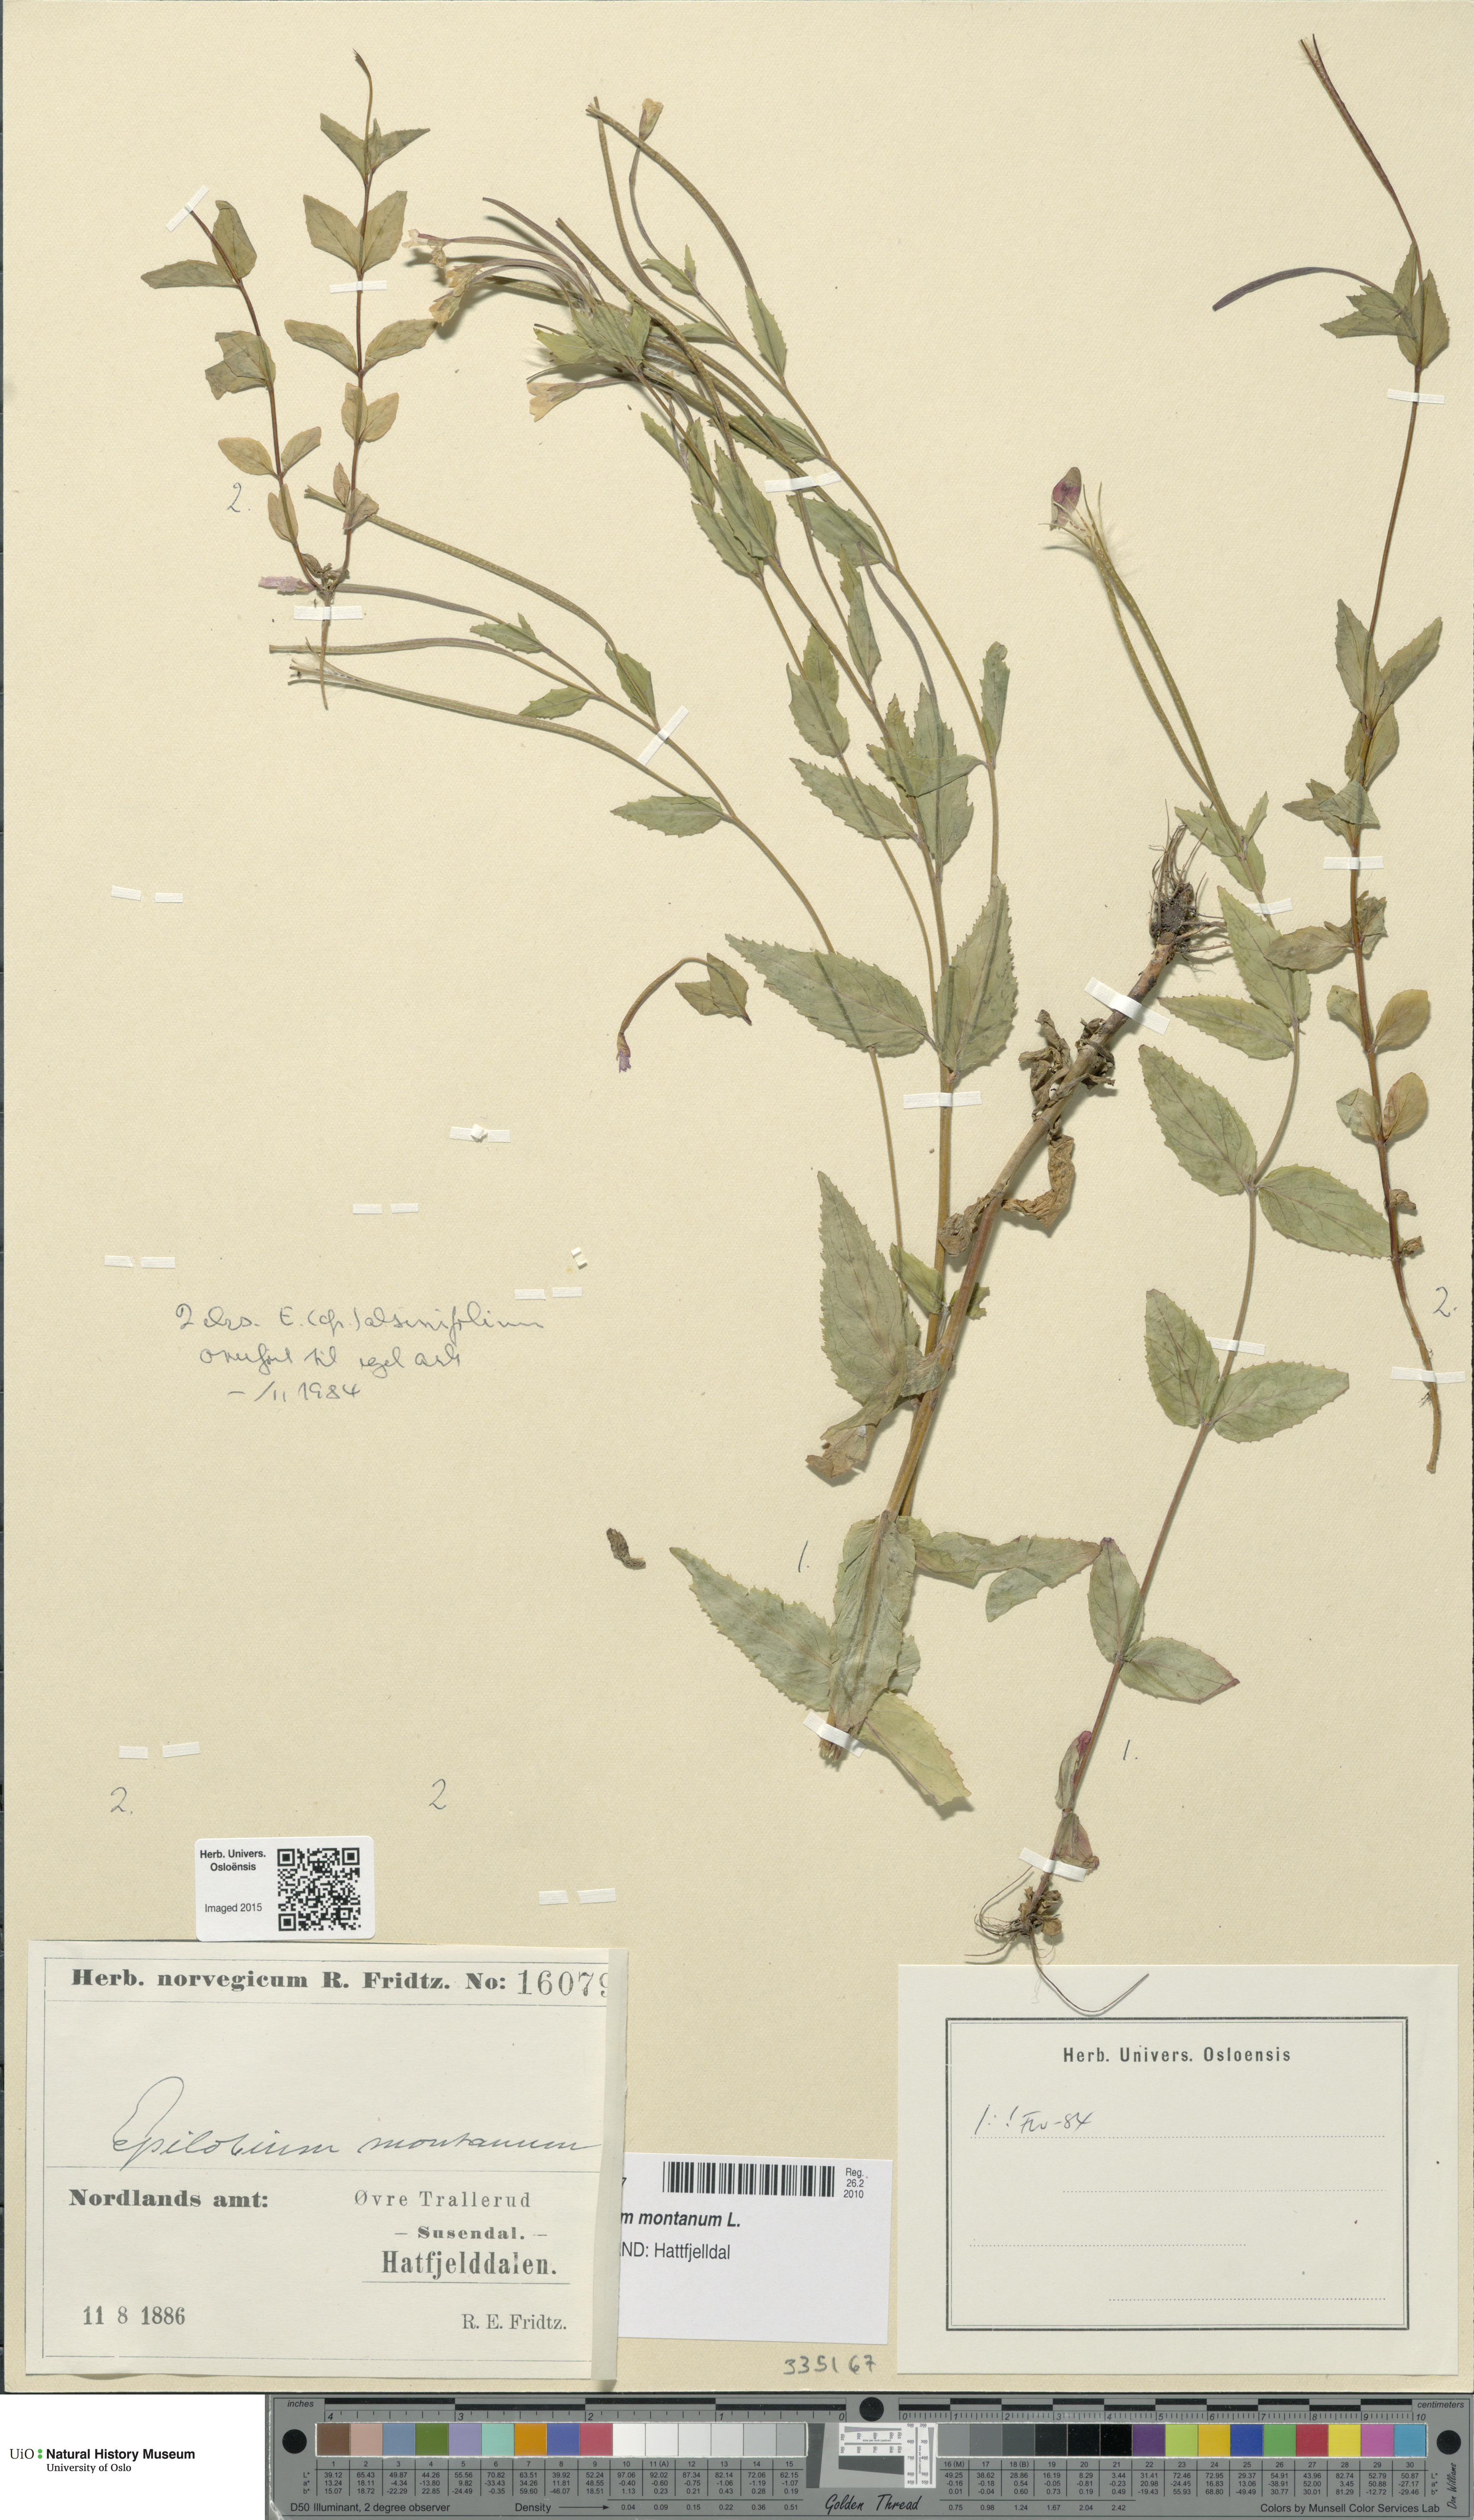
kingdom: Plantae
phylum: Tracheophyta
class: Magnoliopsida
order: Myrtales
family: Onagraceae
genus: Epilobium
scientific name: Epilobium montanum
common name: Broad-leaved willowherb
